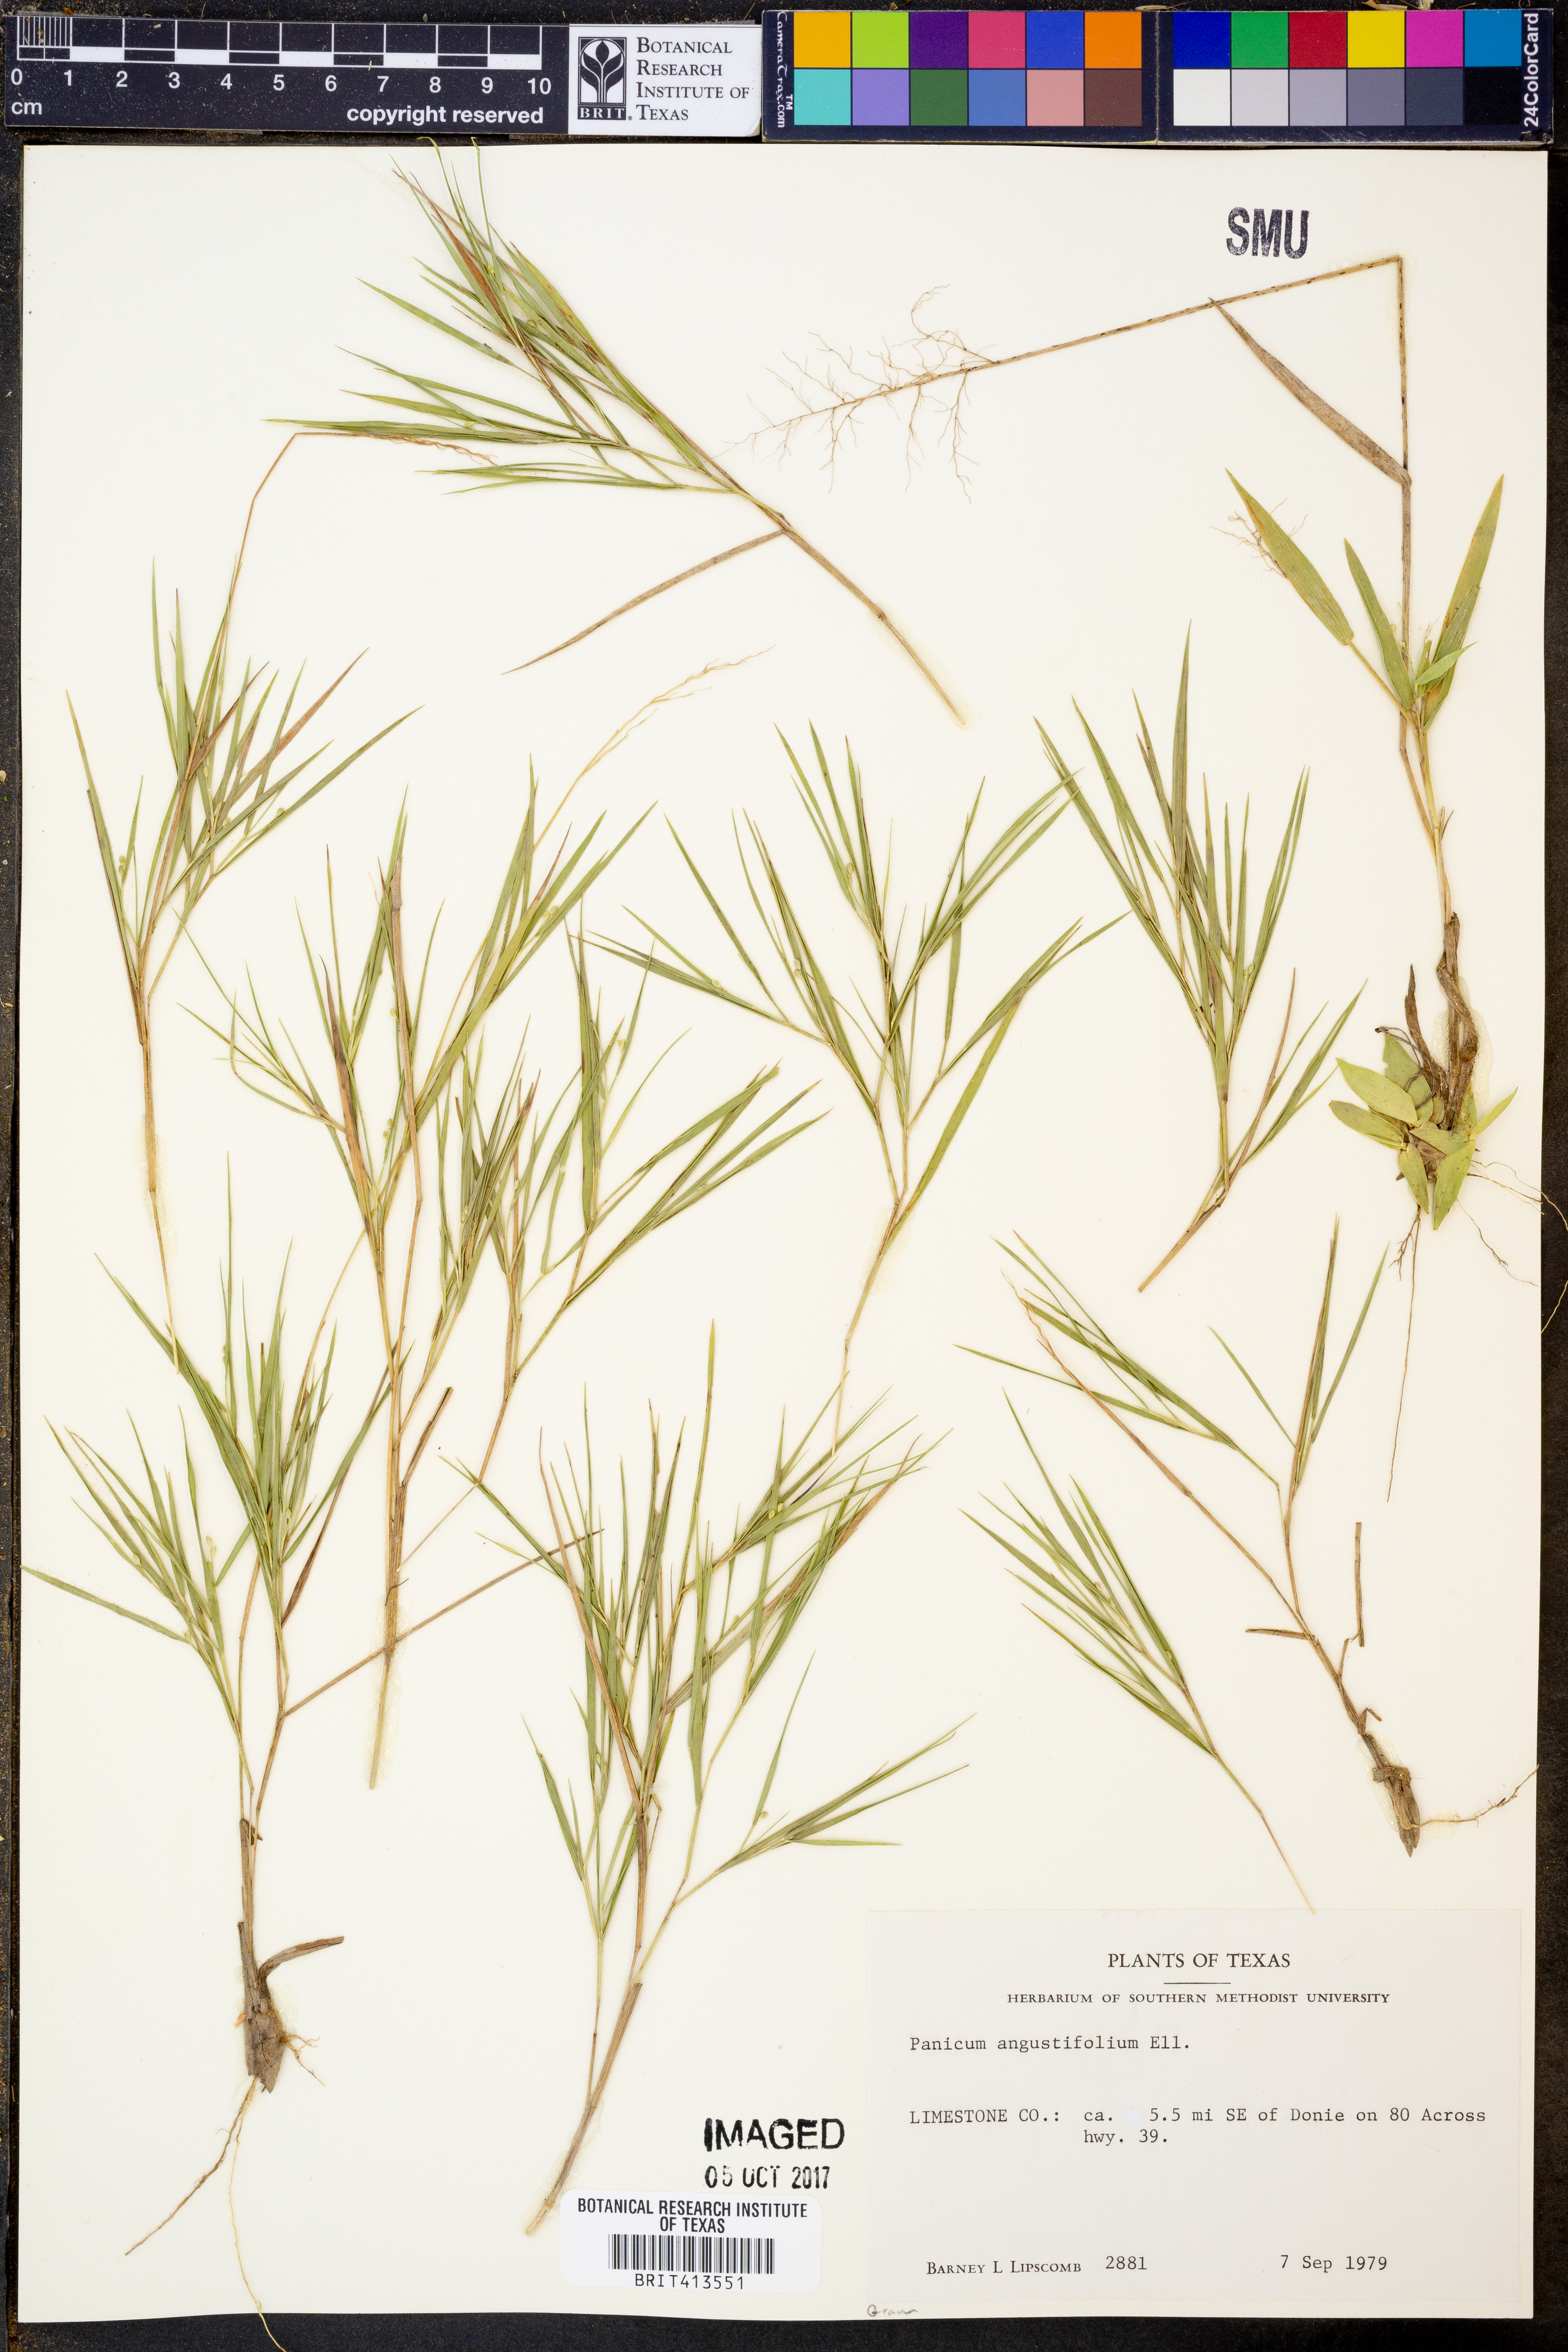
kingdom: Plantae
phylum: Tracheophyta
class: Liliopsida
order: Poales
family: Poaceae
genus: Dichanthelium
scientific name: Dichanthelium dichotomum
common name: Cypress panicgrass
